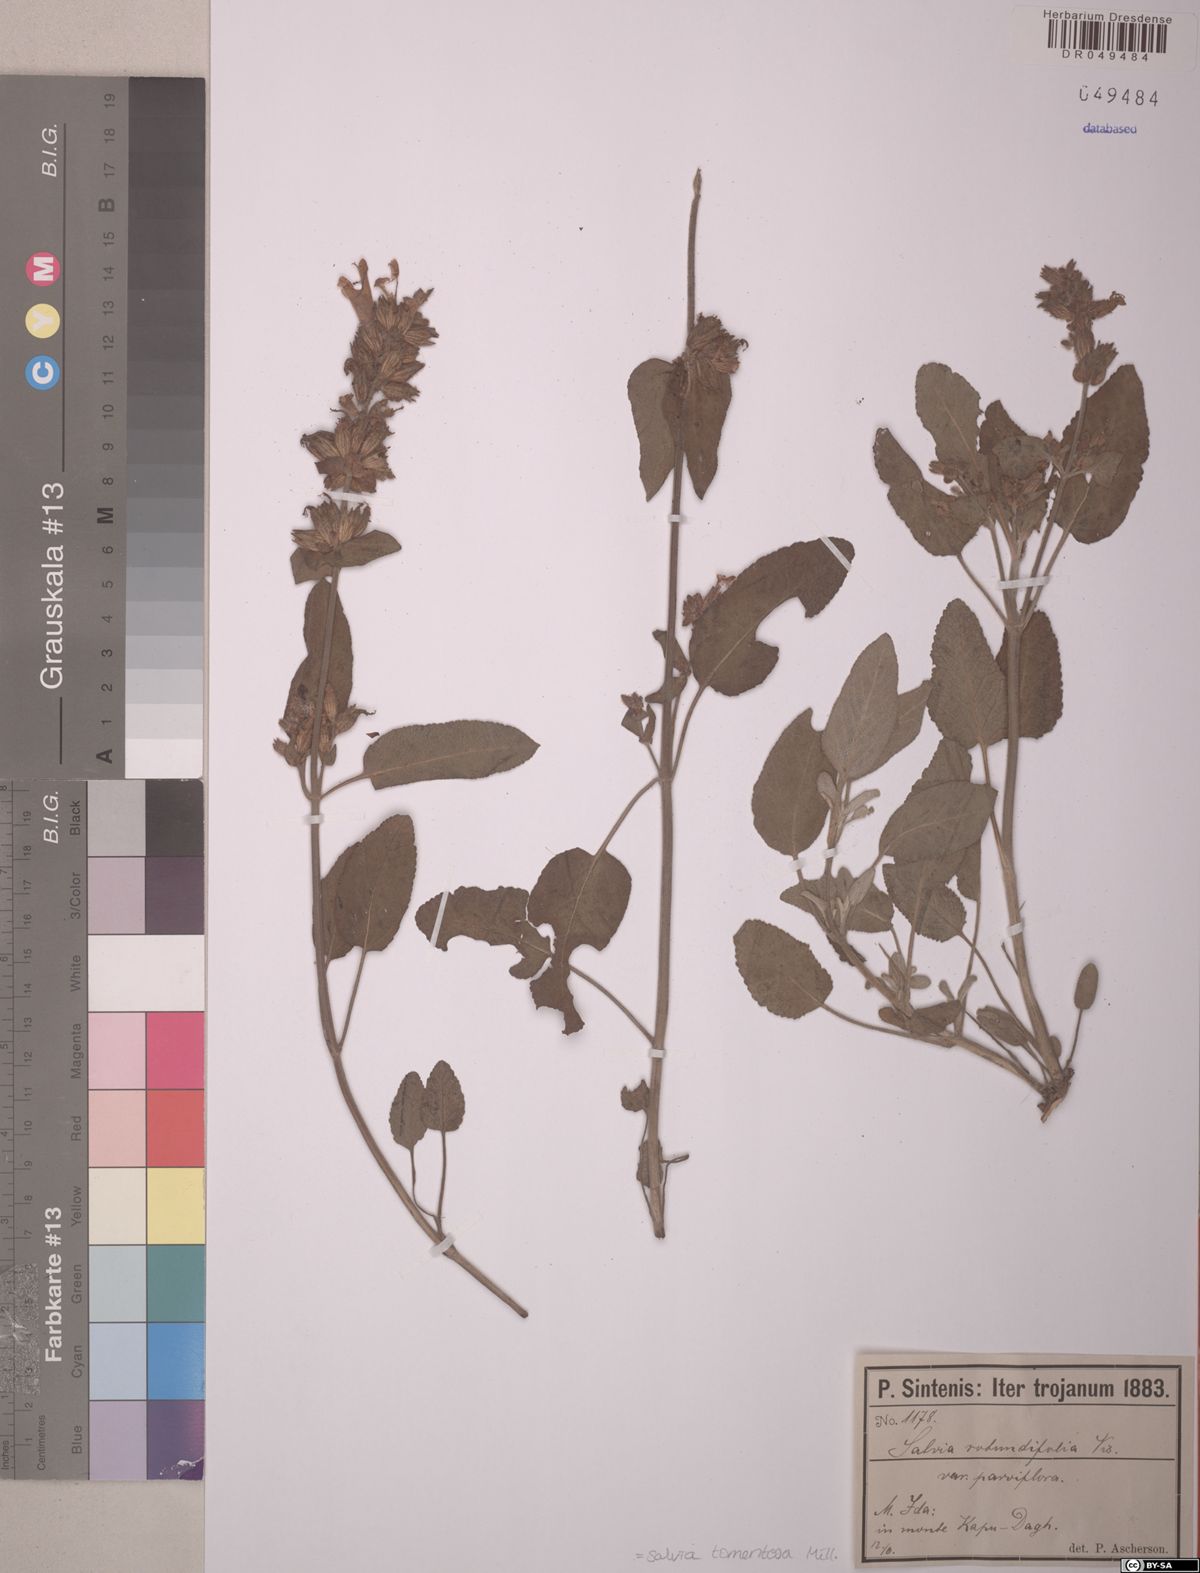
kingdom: Plantae
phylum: Tracheophyta
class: Magnoliopsida
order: Lamiales
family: Lamiaceae
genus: Salvia
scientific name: Salvia tomentosa
